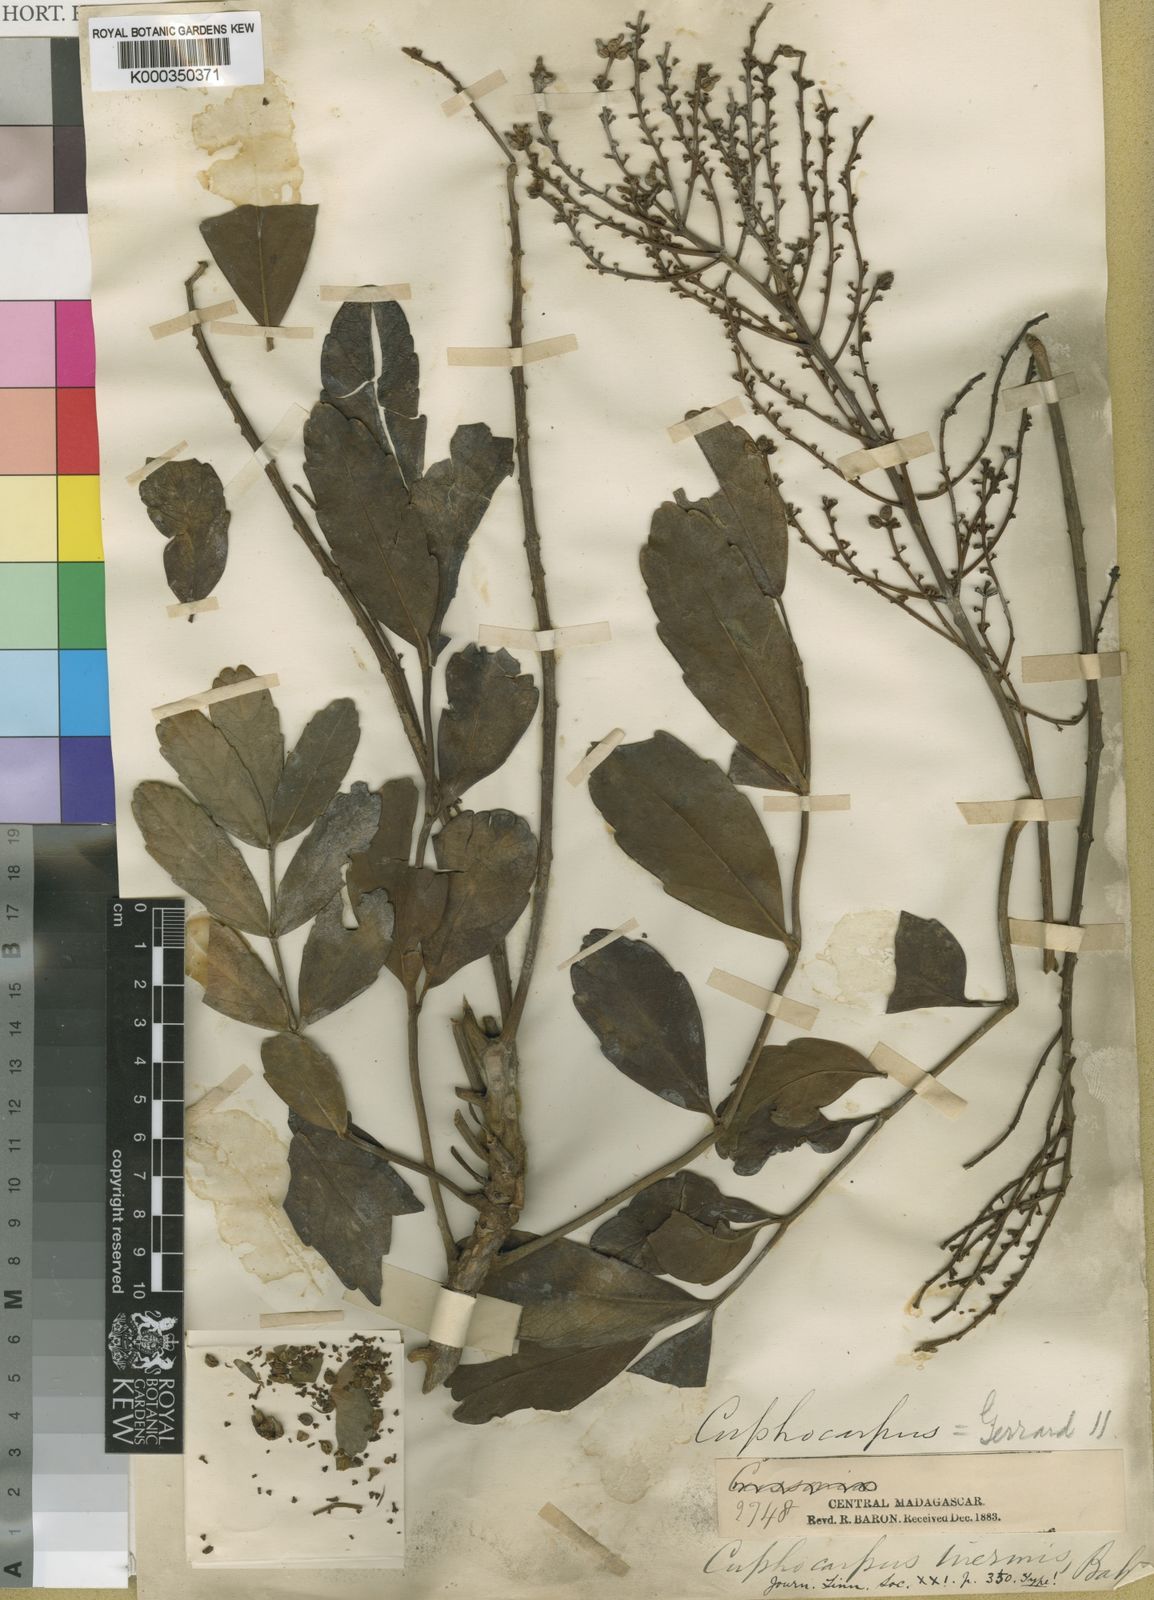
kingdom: Plantae
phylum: Tracheophyta
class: Magnoliopsida
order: Apiales
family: Araliaceae
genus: Polyscias
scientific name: Polyscias aculeata
